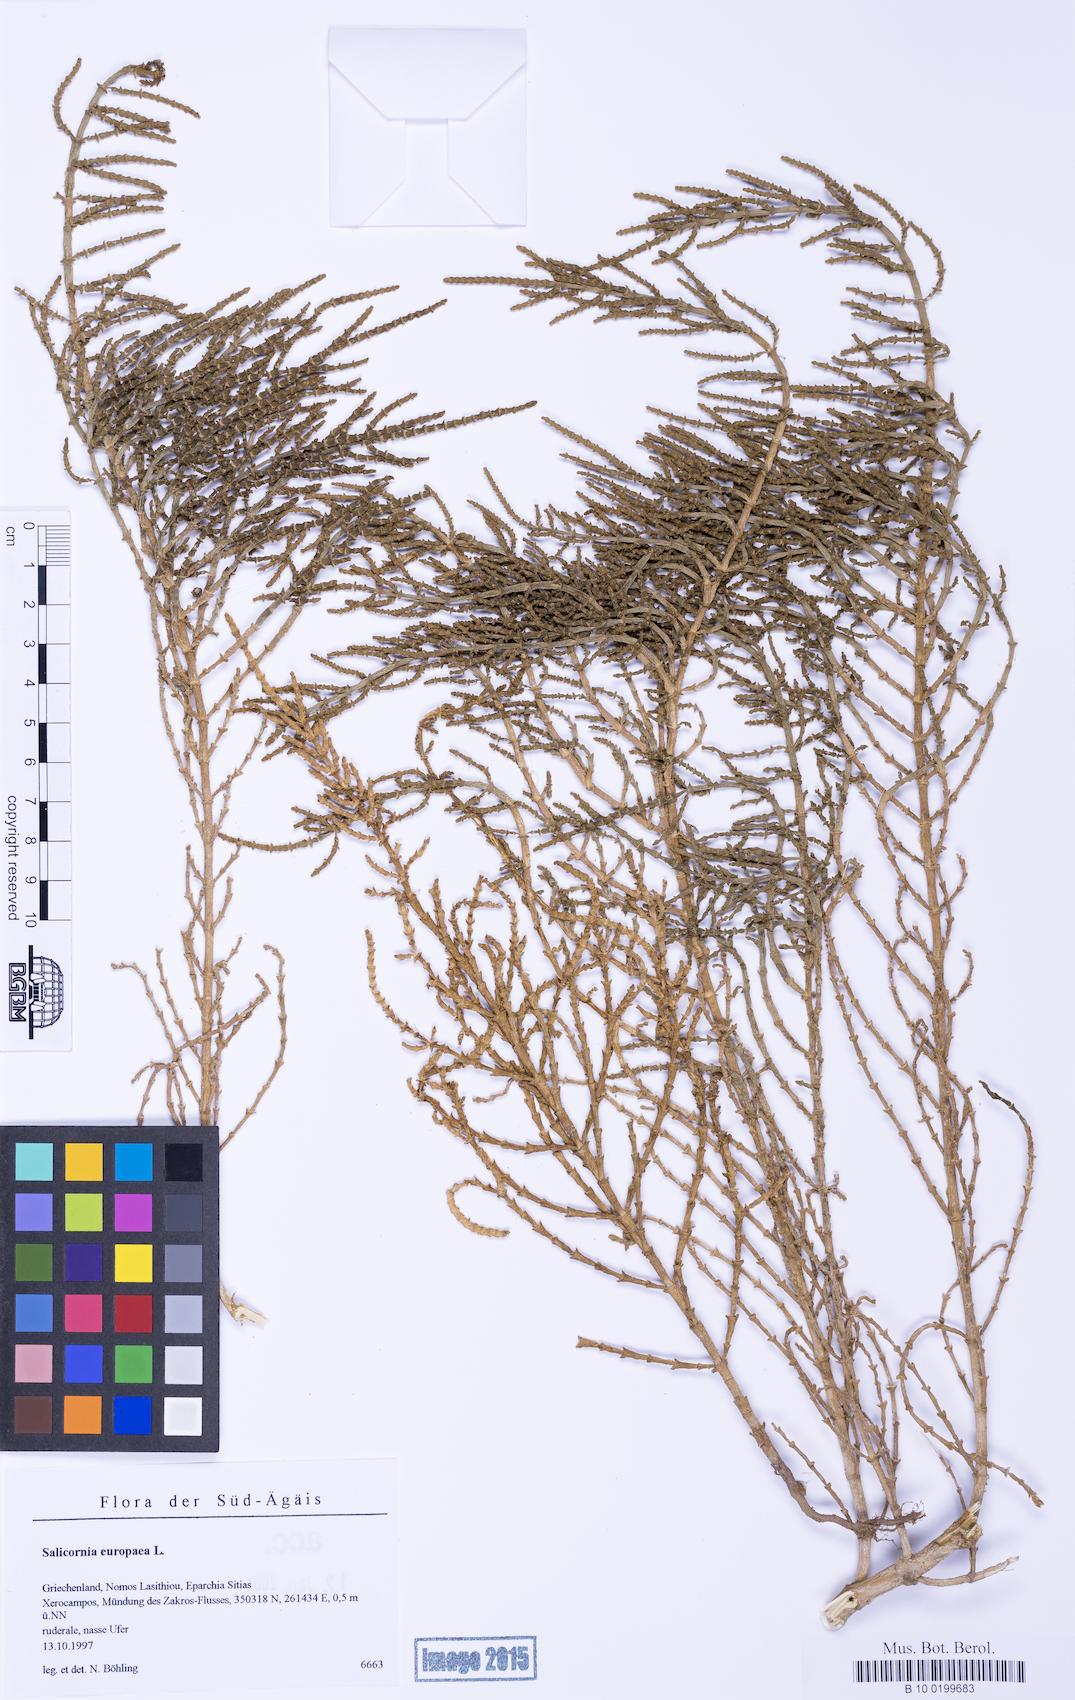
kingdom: Plantae
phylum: Tracheophyta
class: Magnoliopsida
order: Caryophyllales
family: Amaranthaceae
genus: Salicornia
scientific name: Salicornia perennis
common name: Chicken claws
